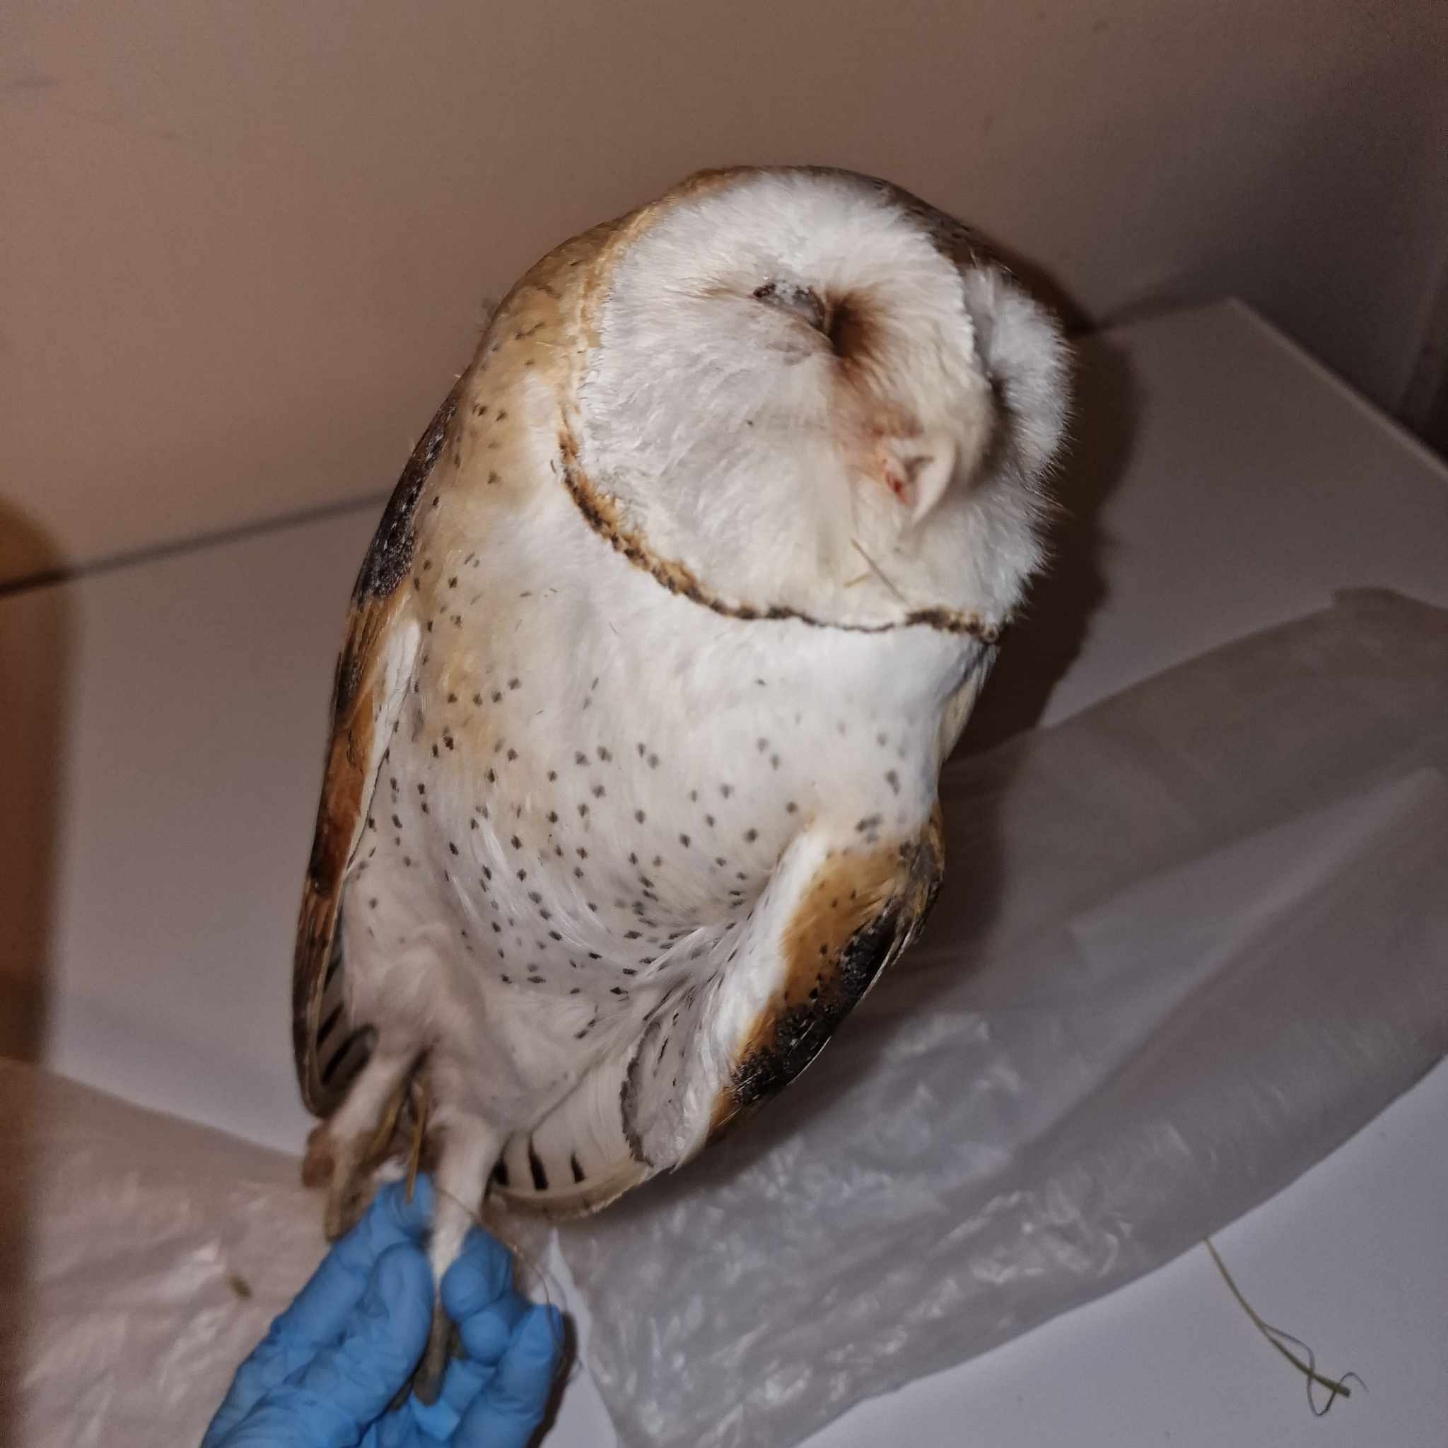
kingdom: Animalia
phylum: Chordata
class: Aves
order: Strigiformes
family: Tytonidae
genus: Tyto
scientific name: Tyto alba
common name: Slørugle
